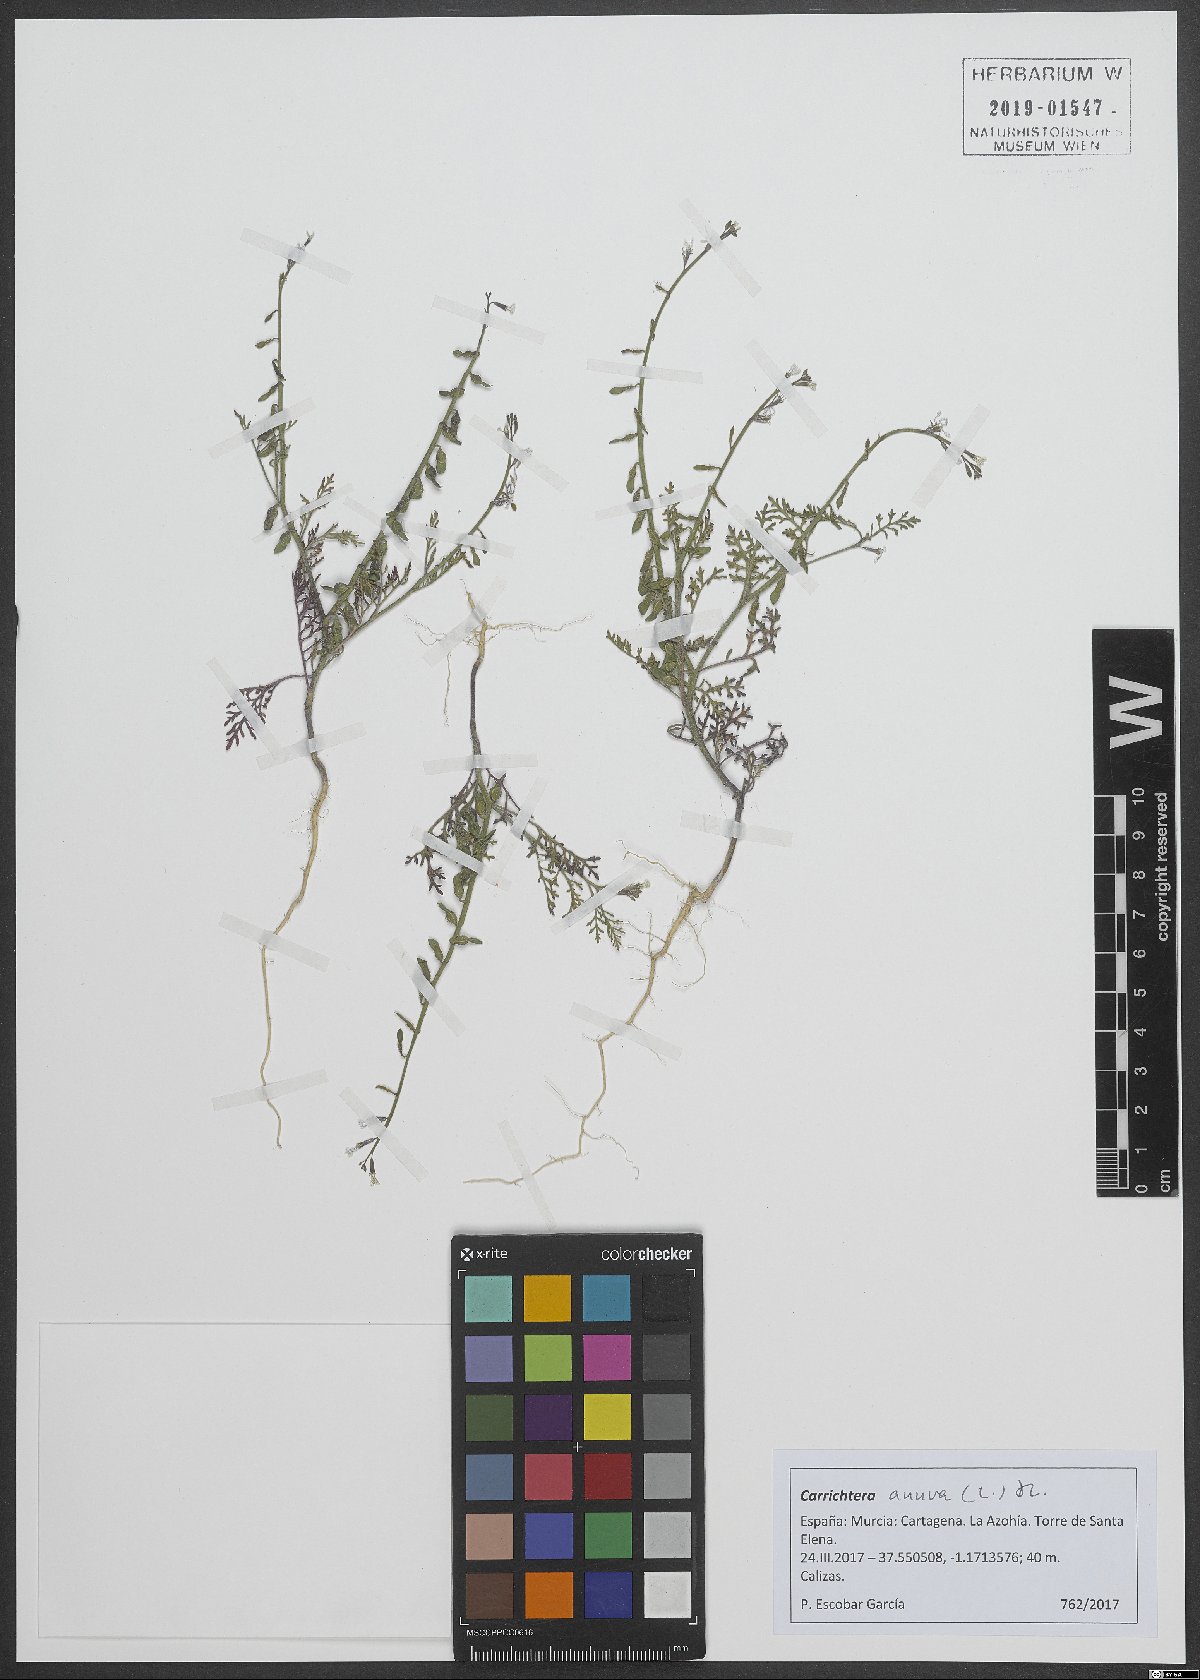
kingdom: Plantae
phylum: Tracheophyta
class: Magnoliopsida
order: Brassicales
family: Brassicaceae
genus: Carrichtera
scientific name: Carrichtera annua
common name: Cress rocket
